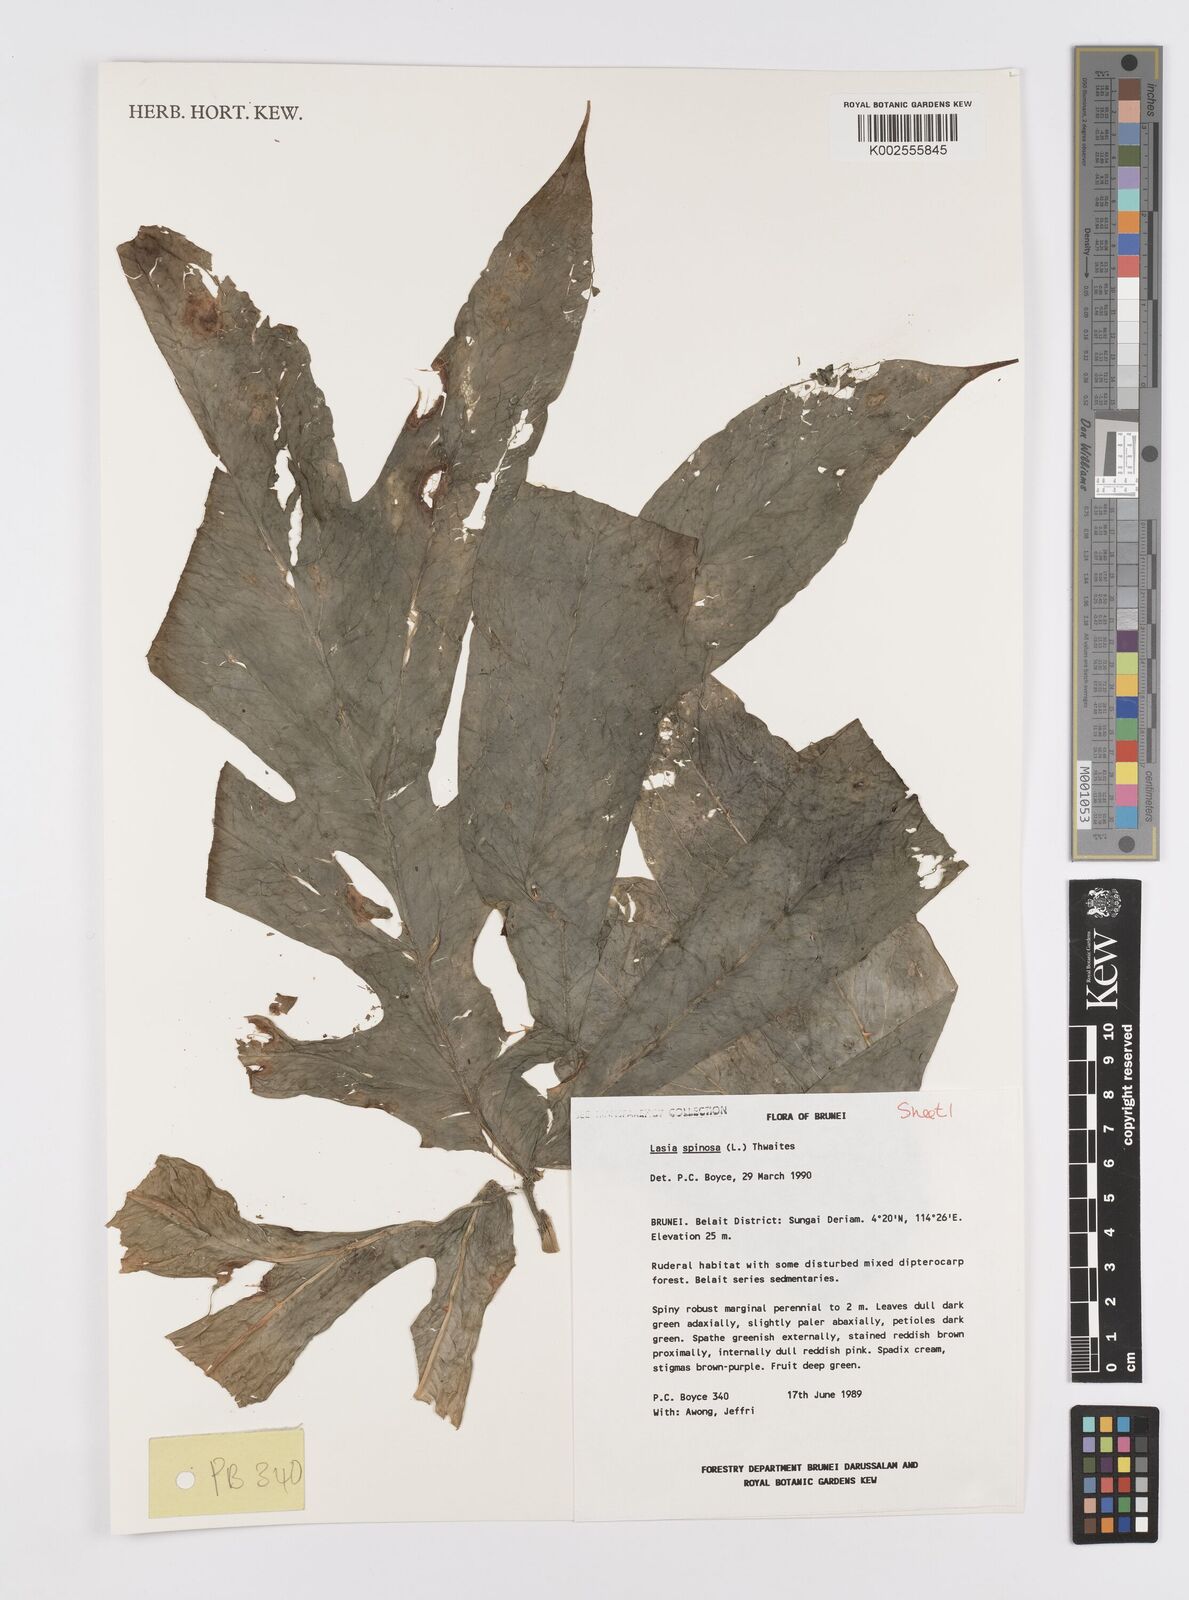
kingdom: Plantae
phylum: Tracheophyta
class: Liliopsida
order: Alismatales
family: Araceae
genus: Lasia
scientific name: Lasia spinosa
